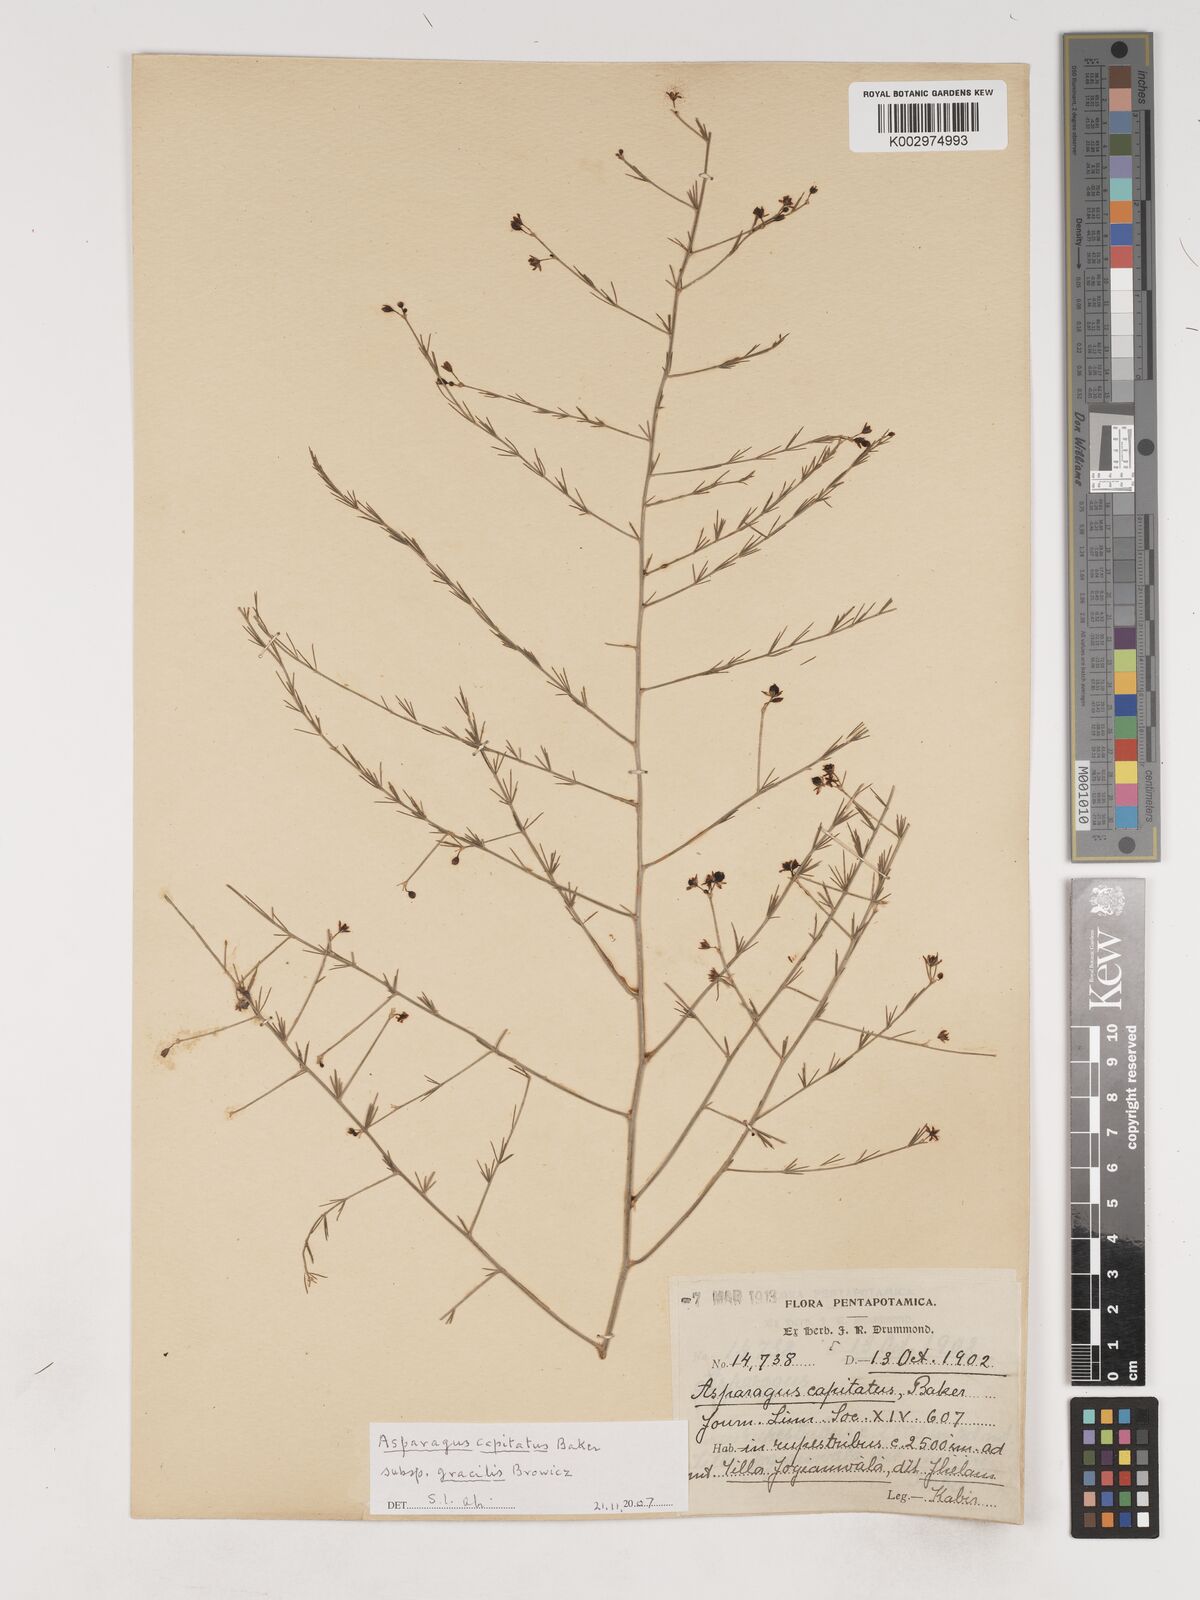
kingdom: Plantae
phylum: Tracheophyta
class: Liliopsida
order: Asparagales
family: Asparagaceae
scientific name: Asparagaceae
